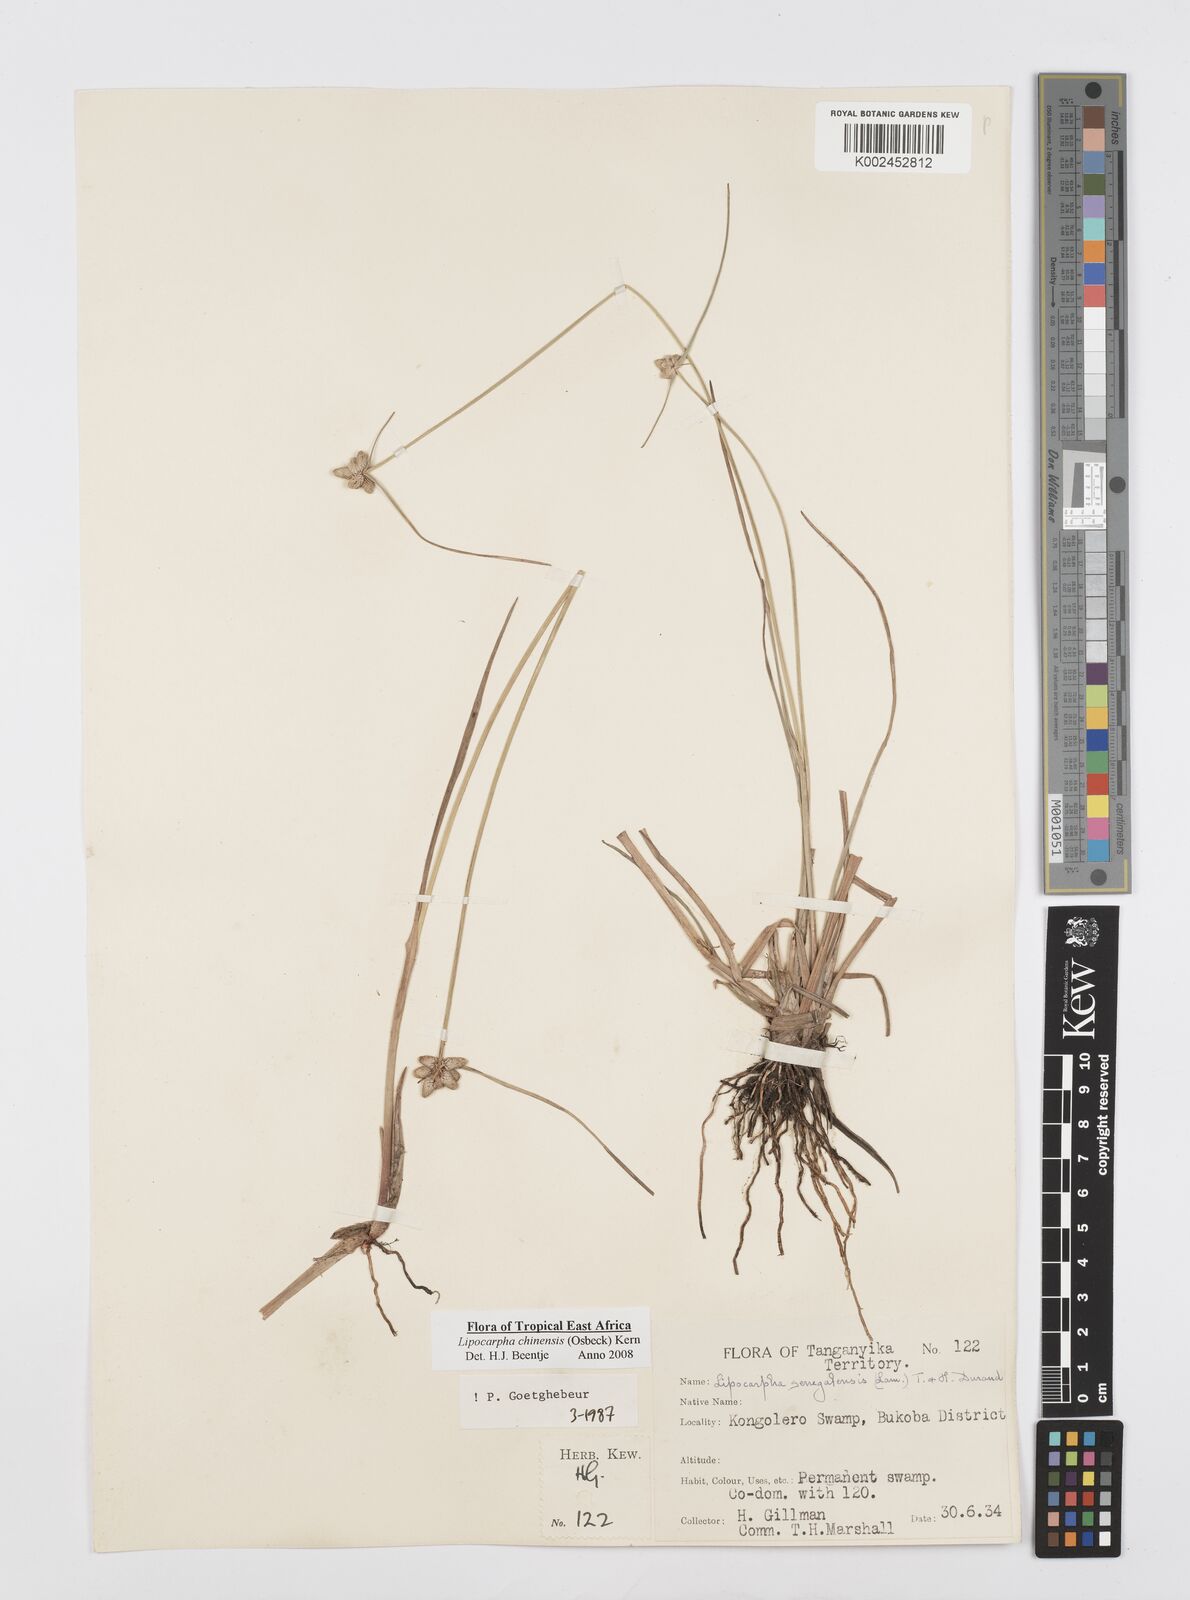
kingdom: Plantae
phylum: Tracheophyta
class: Liliopsida
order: Poales
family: Cyperaceae
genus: Cyperus
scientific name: Cyperus albescens
